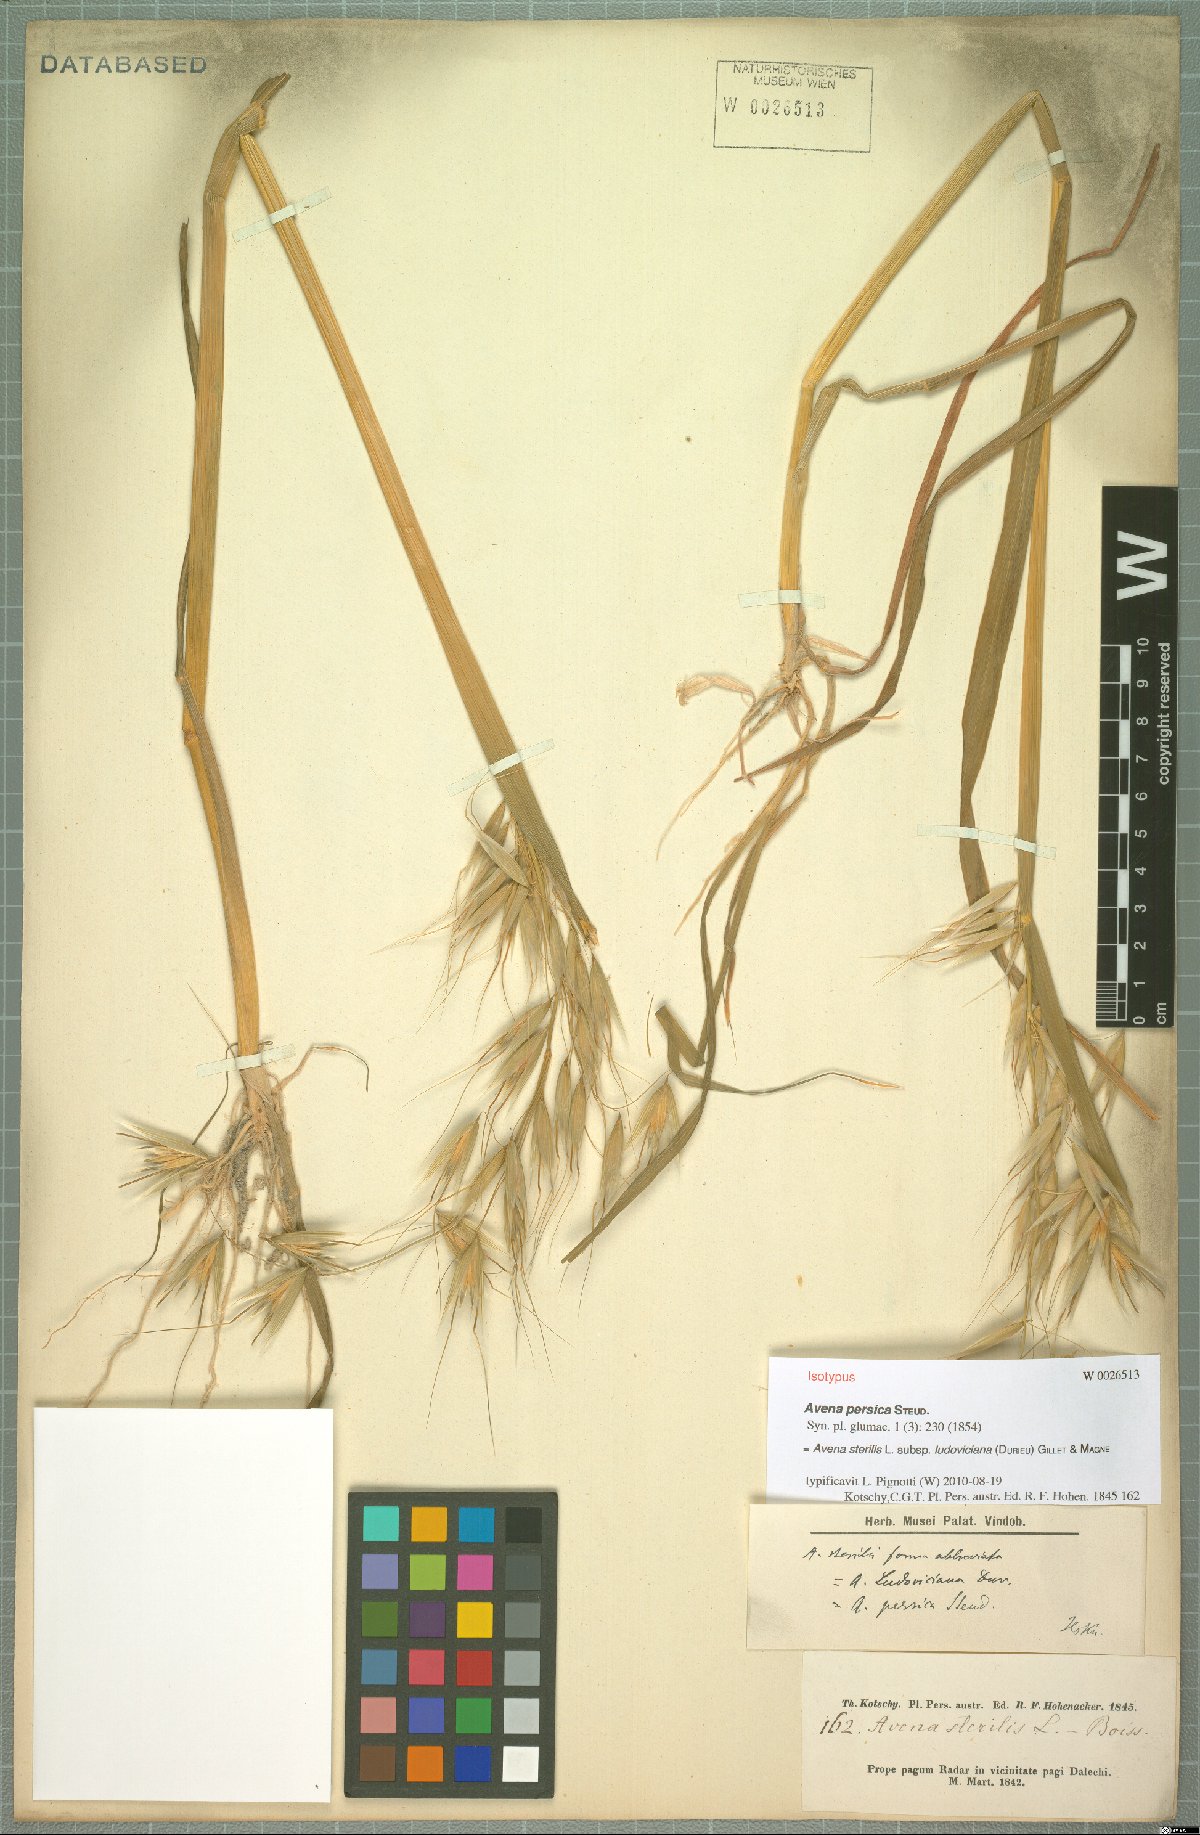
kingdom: Plantae
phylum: Tracheophyta
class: Liliopsida
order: Poales
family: Poaceae
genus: Avena
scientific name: Avena sterilis
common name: Animated oat
